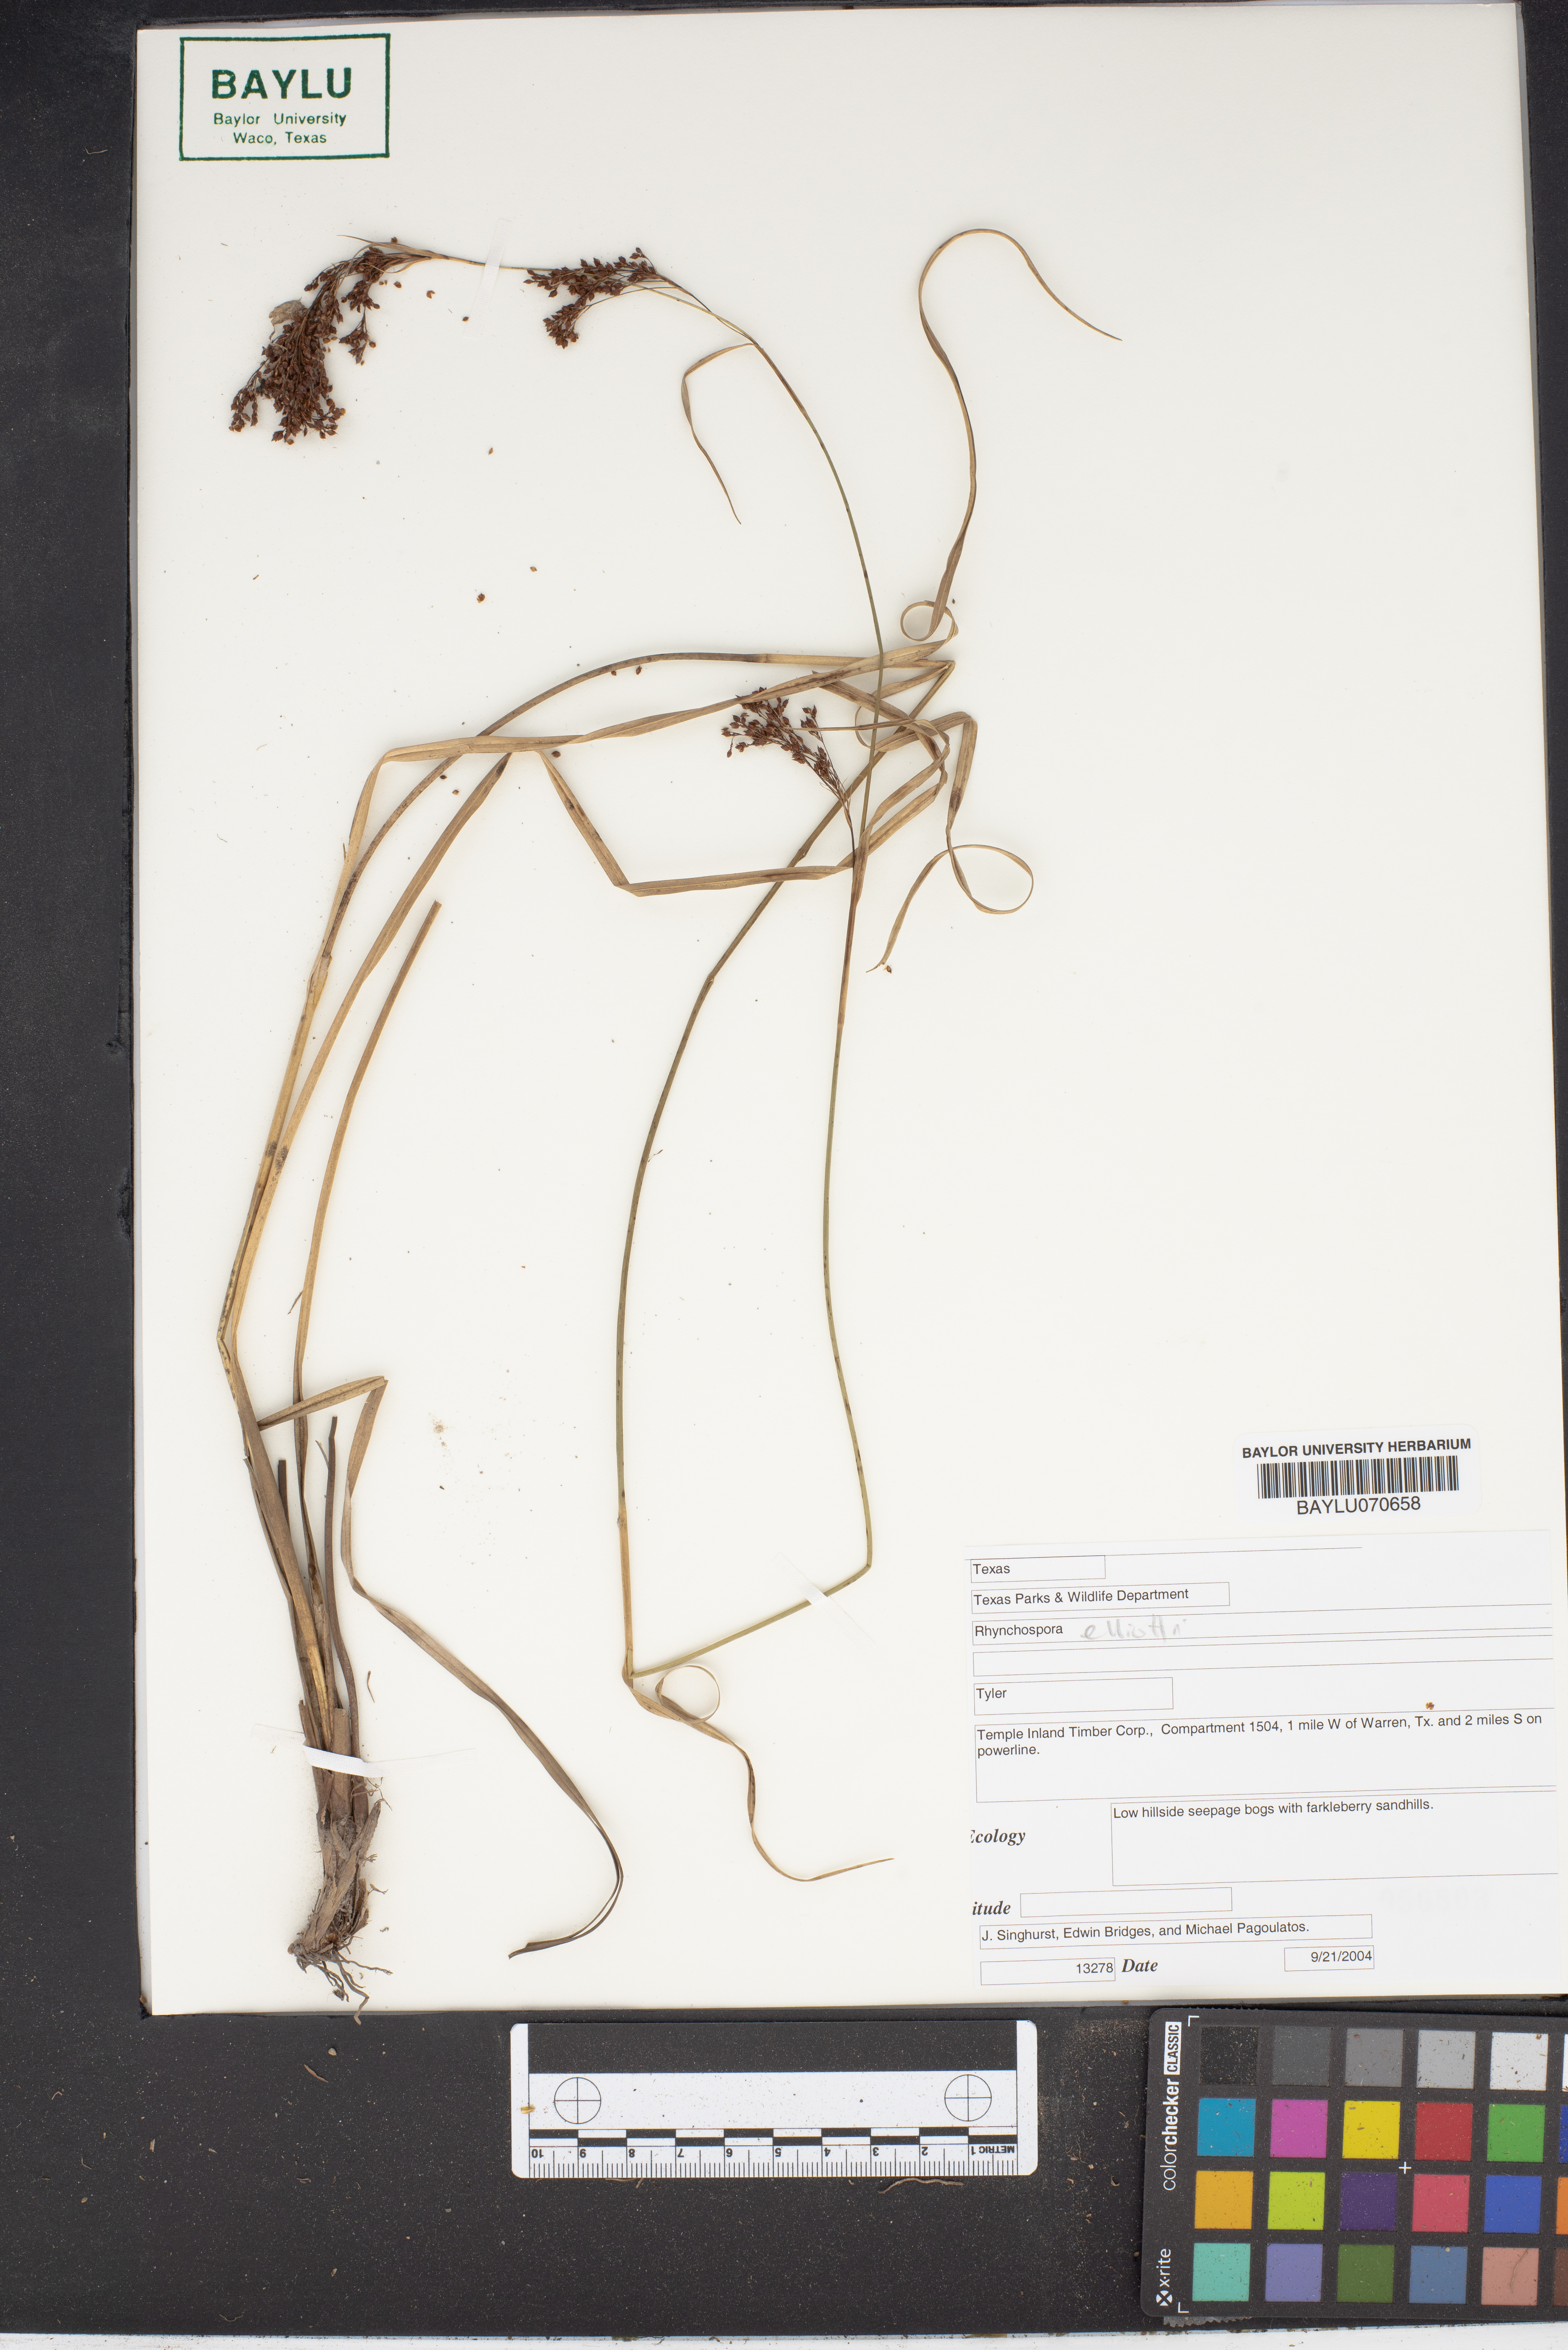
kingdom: Plantae
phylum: Tracheophyta
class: Liliopsida
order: Poales
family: Cyperaceae
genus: Rhynchospora
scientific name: Rhynchospora elliottii
